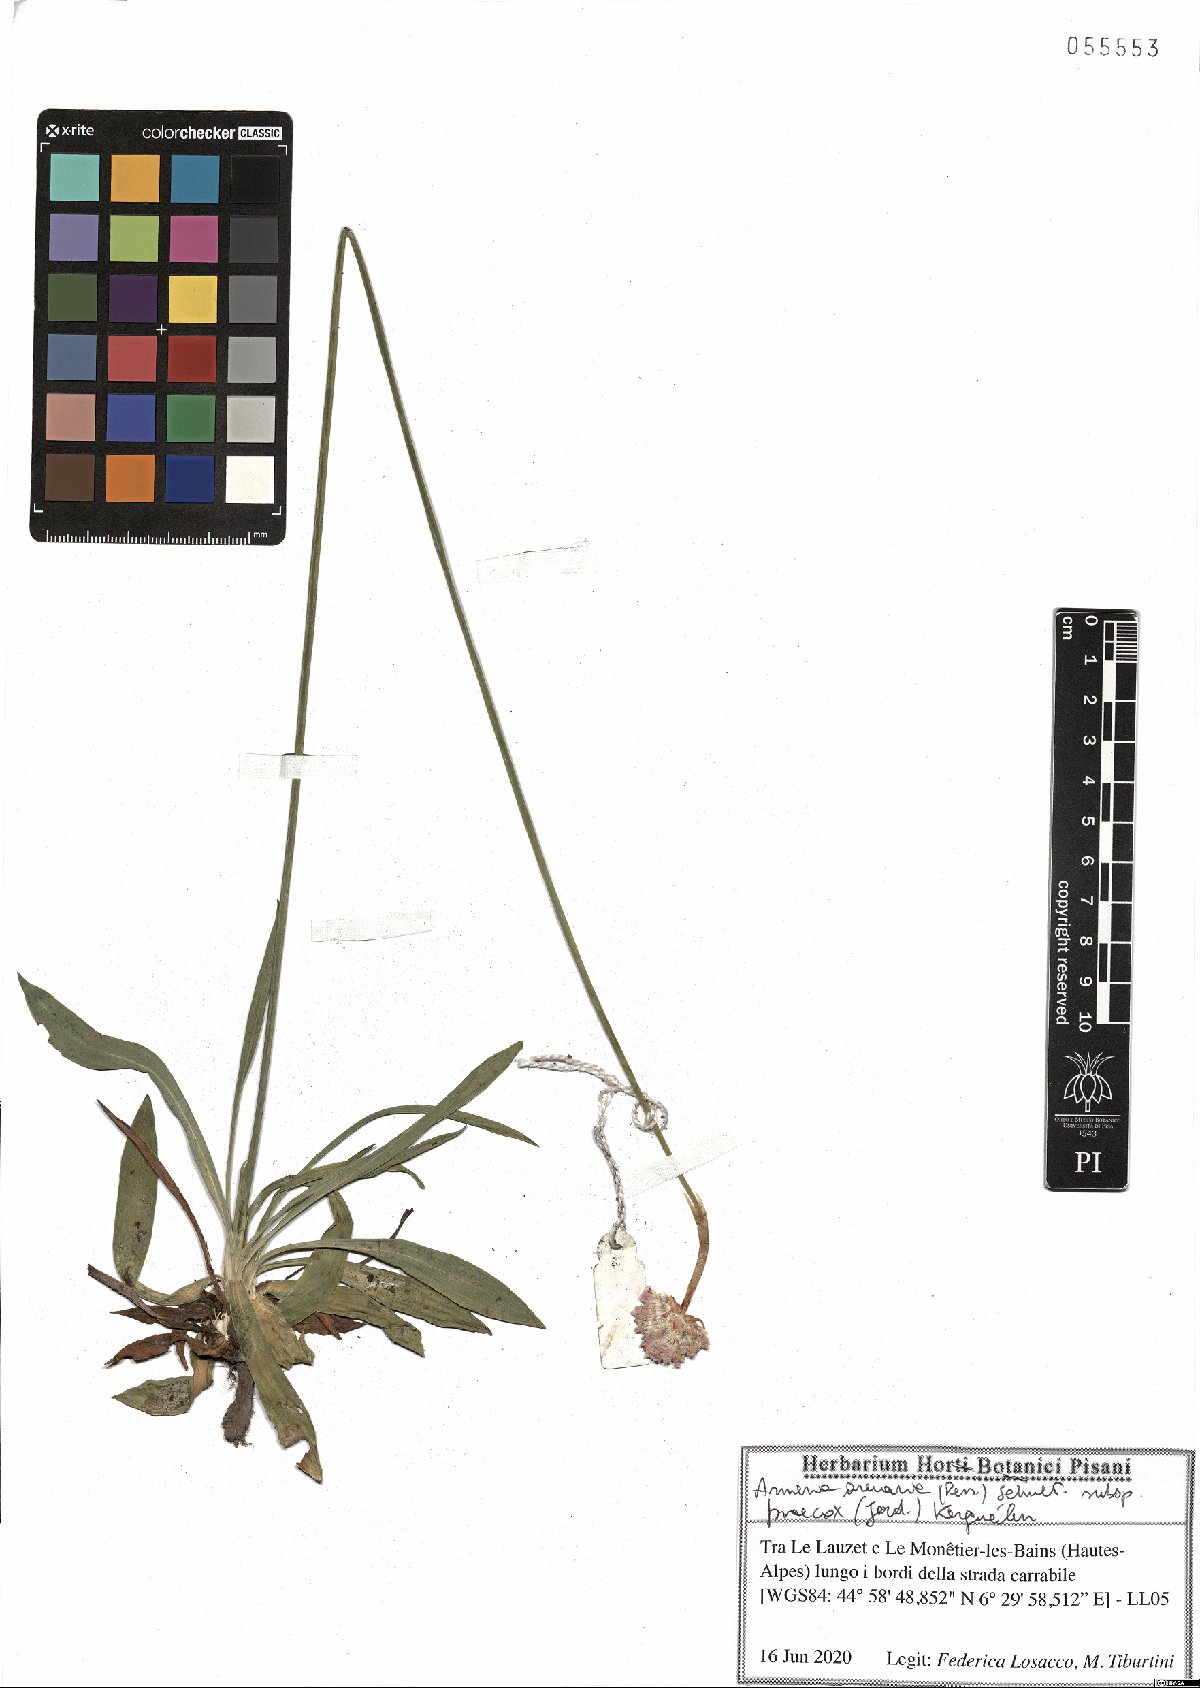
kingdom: Plantae
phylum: Tracheophyta
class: Magnoliopsida
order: Caryophyllales
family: Plumbaginaceae
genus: Armeria
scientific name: Armeria arenaria
